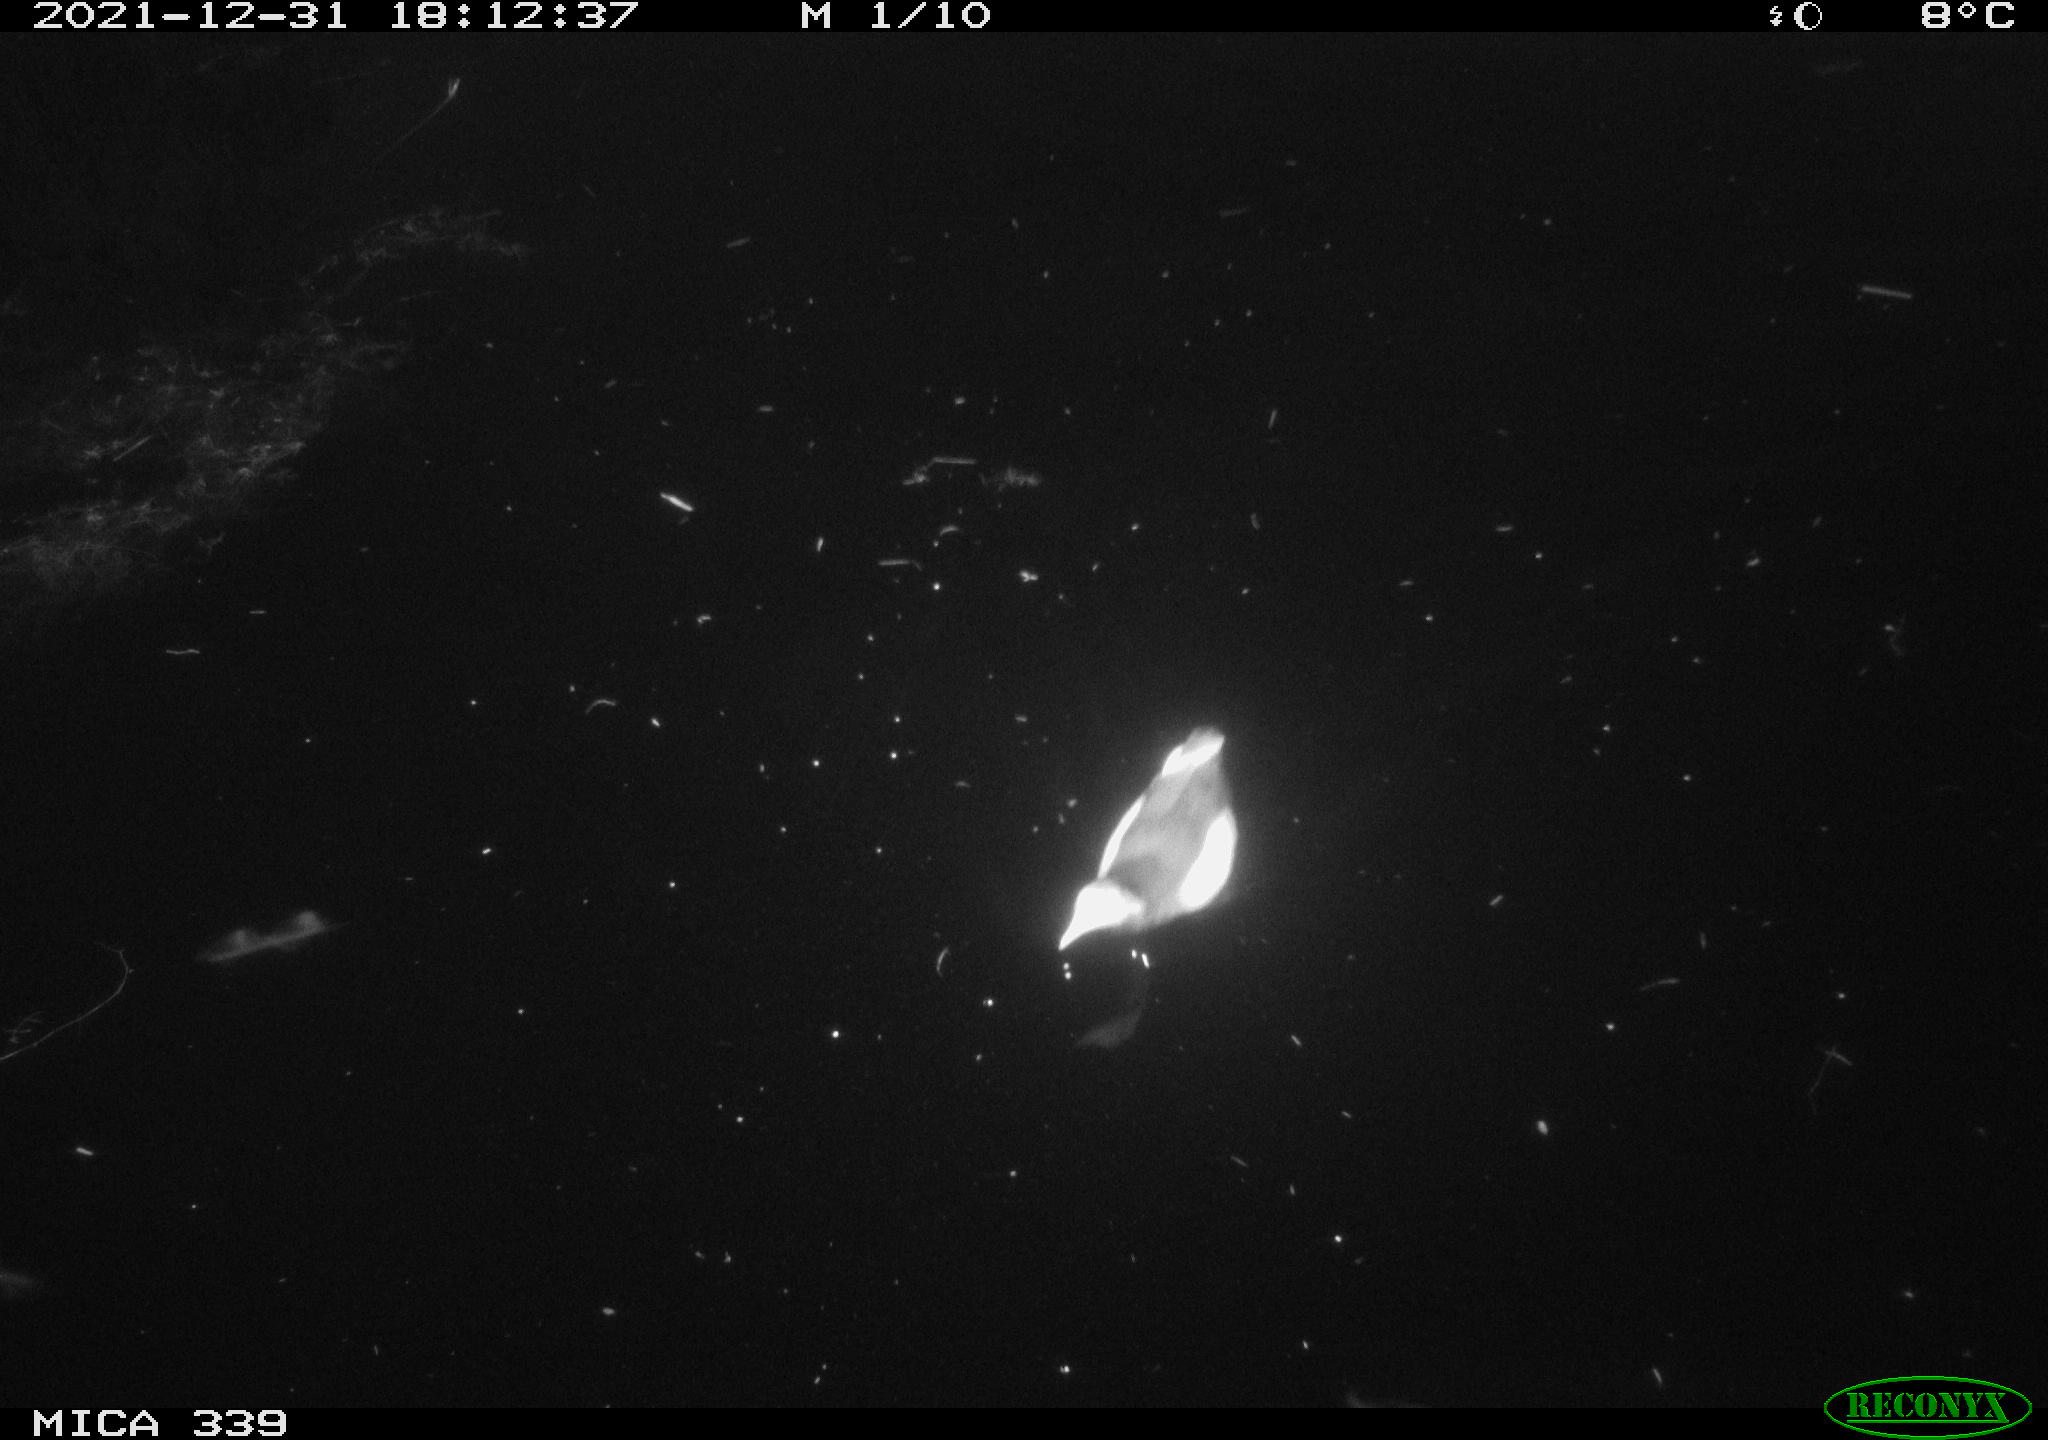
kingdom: Animalia
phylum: Chordata
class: Aves
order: Gruiformes
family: Rallidae
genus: Gallinula
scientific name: Gallinula chloropus
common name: Common moorhen
